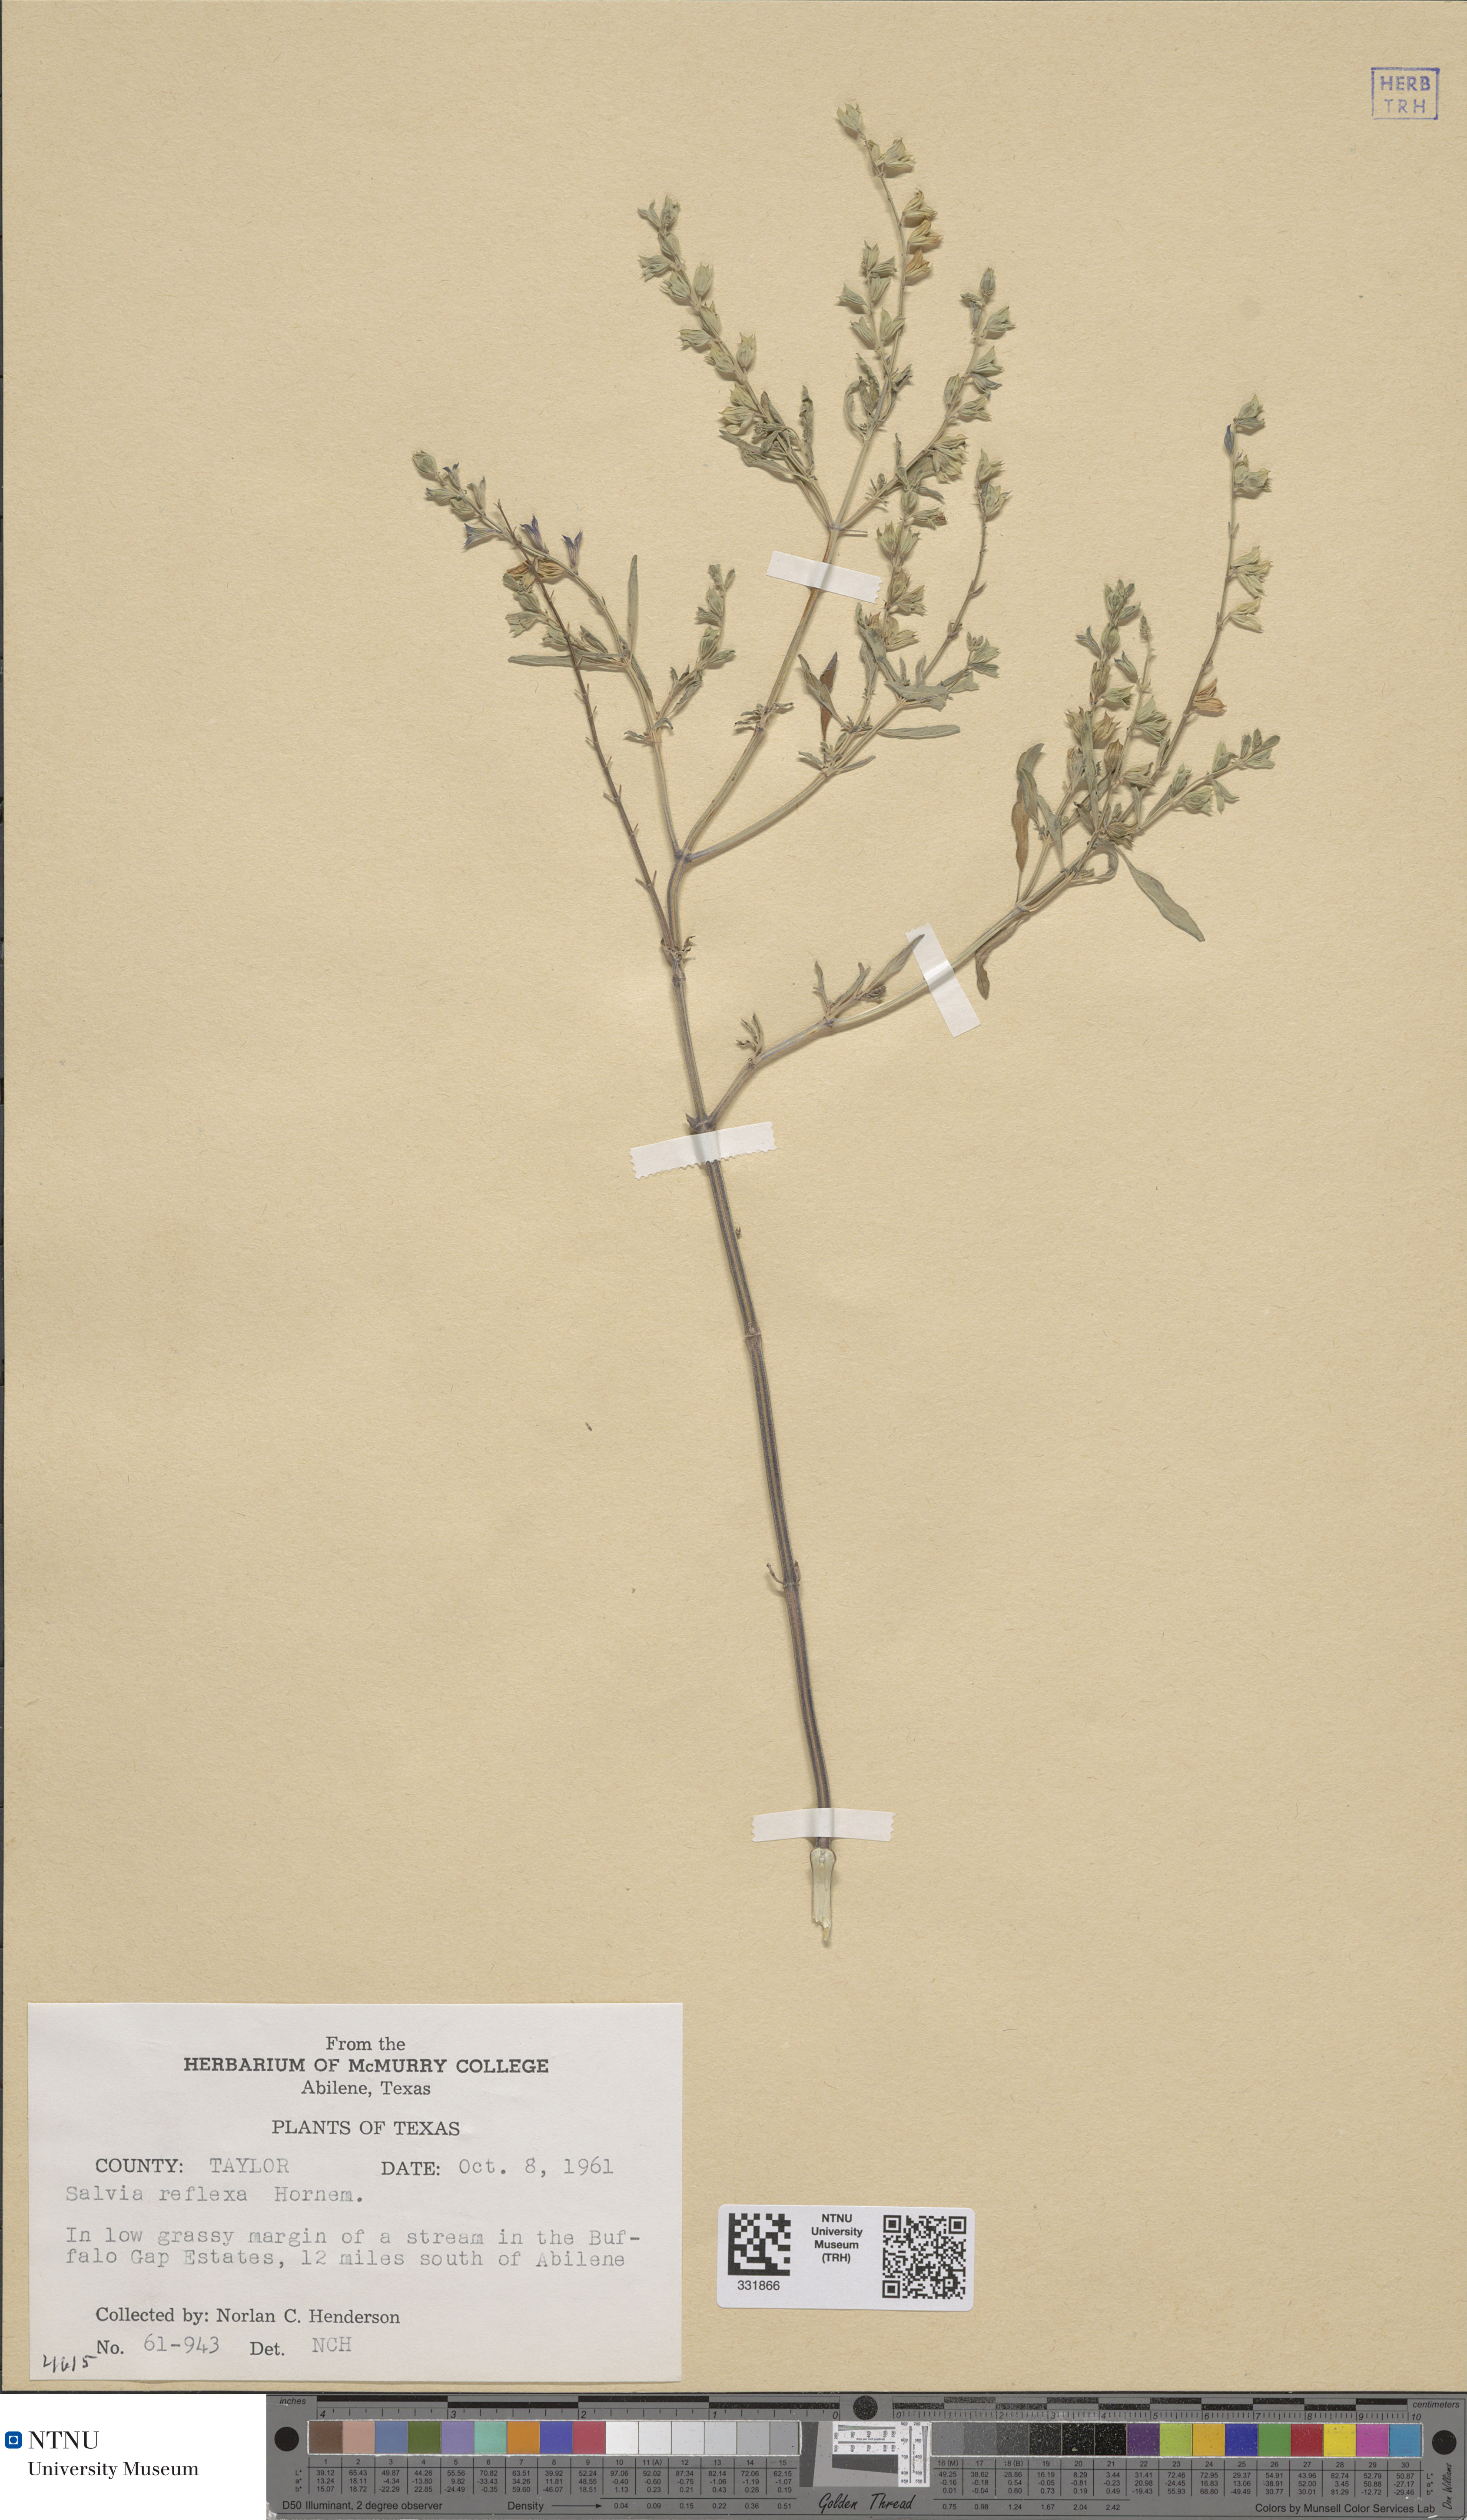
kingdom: Plantae
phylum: Tracheophyta
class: Magnoliopsida
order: Lamiales
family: Lamiaceae
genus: Salvia
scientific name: Salvia reflexa
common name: Mintweed
